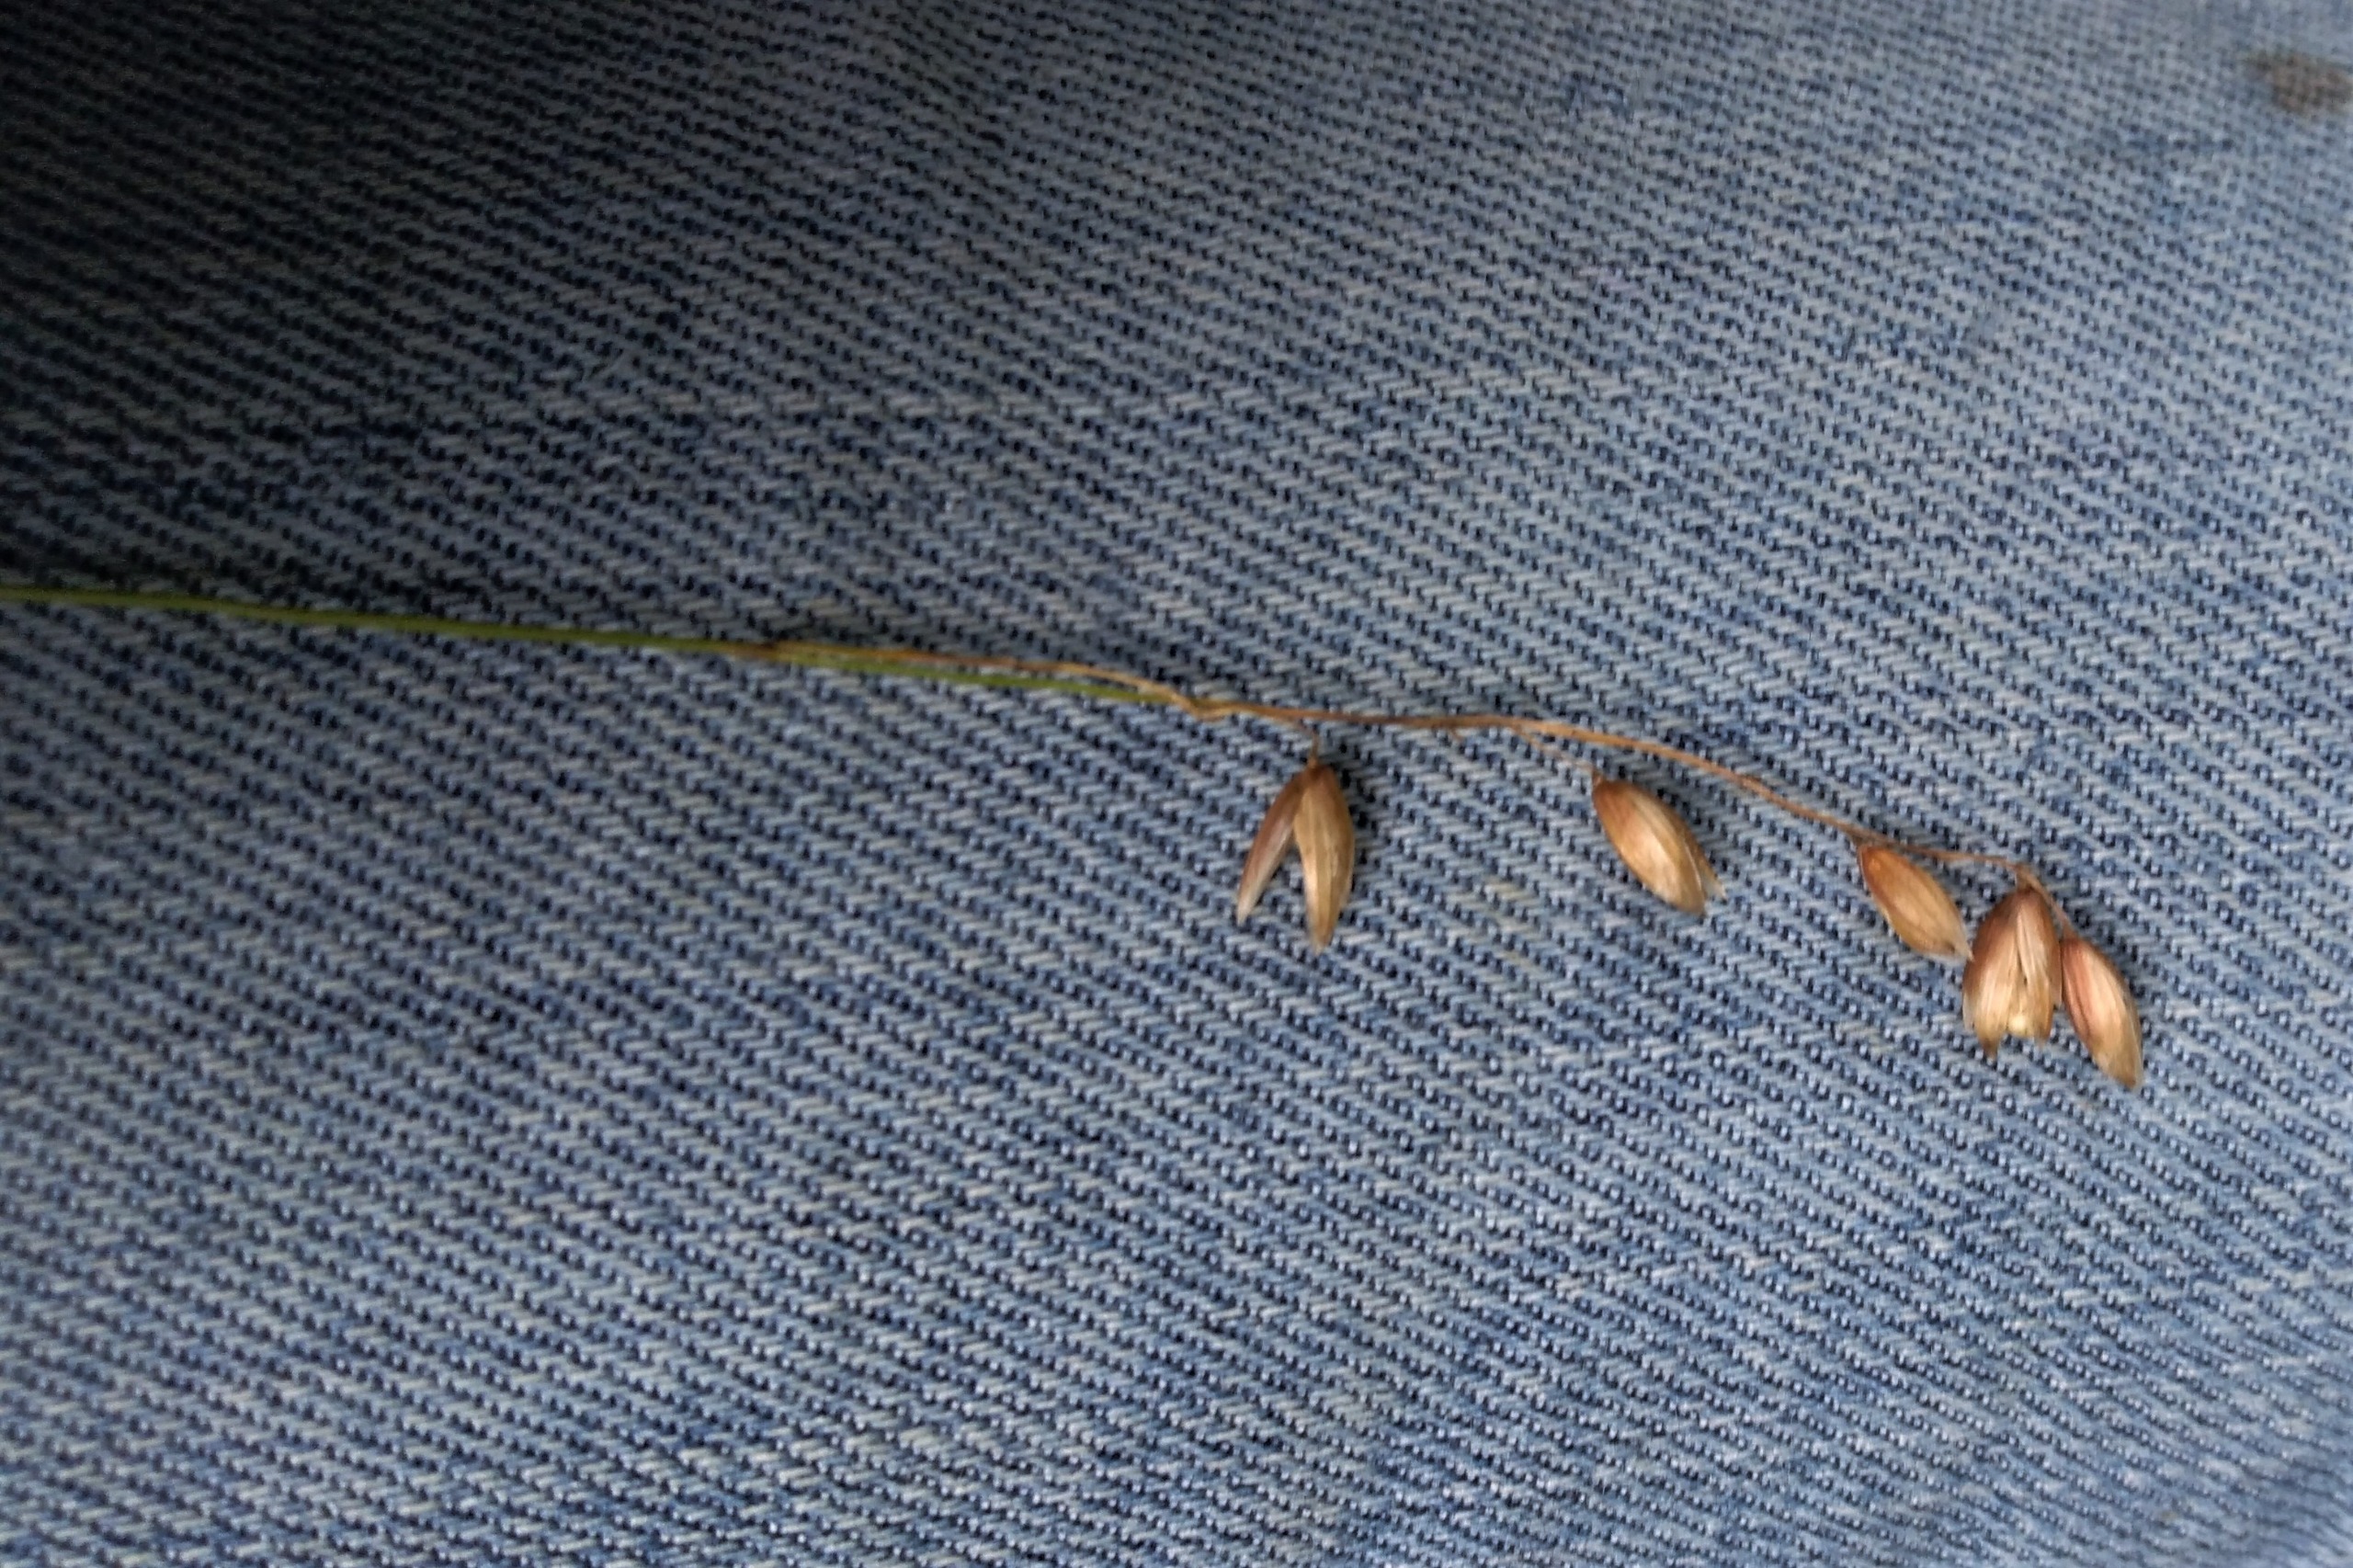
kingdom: Plantae
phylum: Tracheophyta
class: Liliopsida
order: Poales
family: Poaceae
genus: Melica
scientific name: Melica nutans
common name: Nikkende flitteraks
